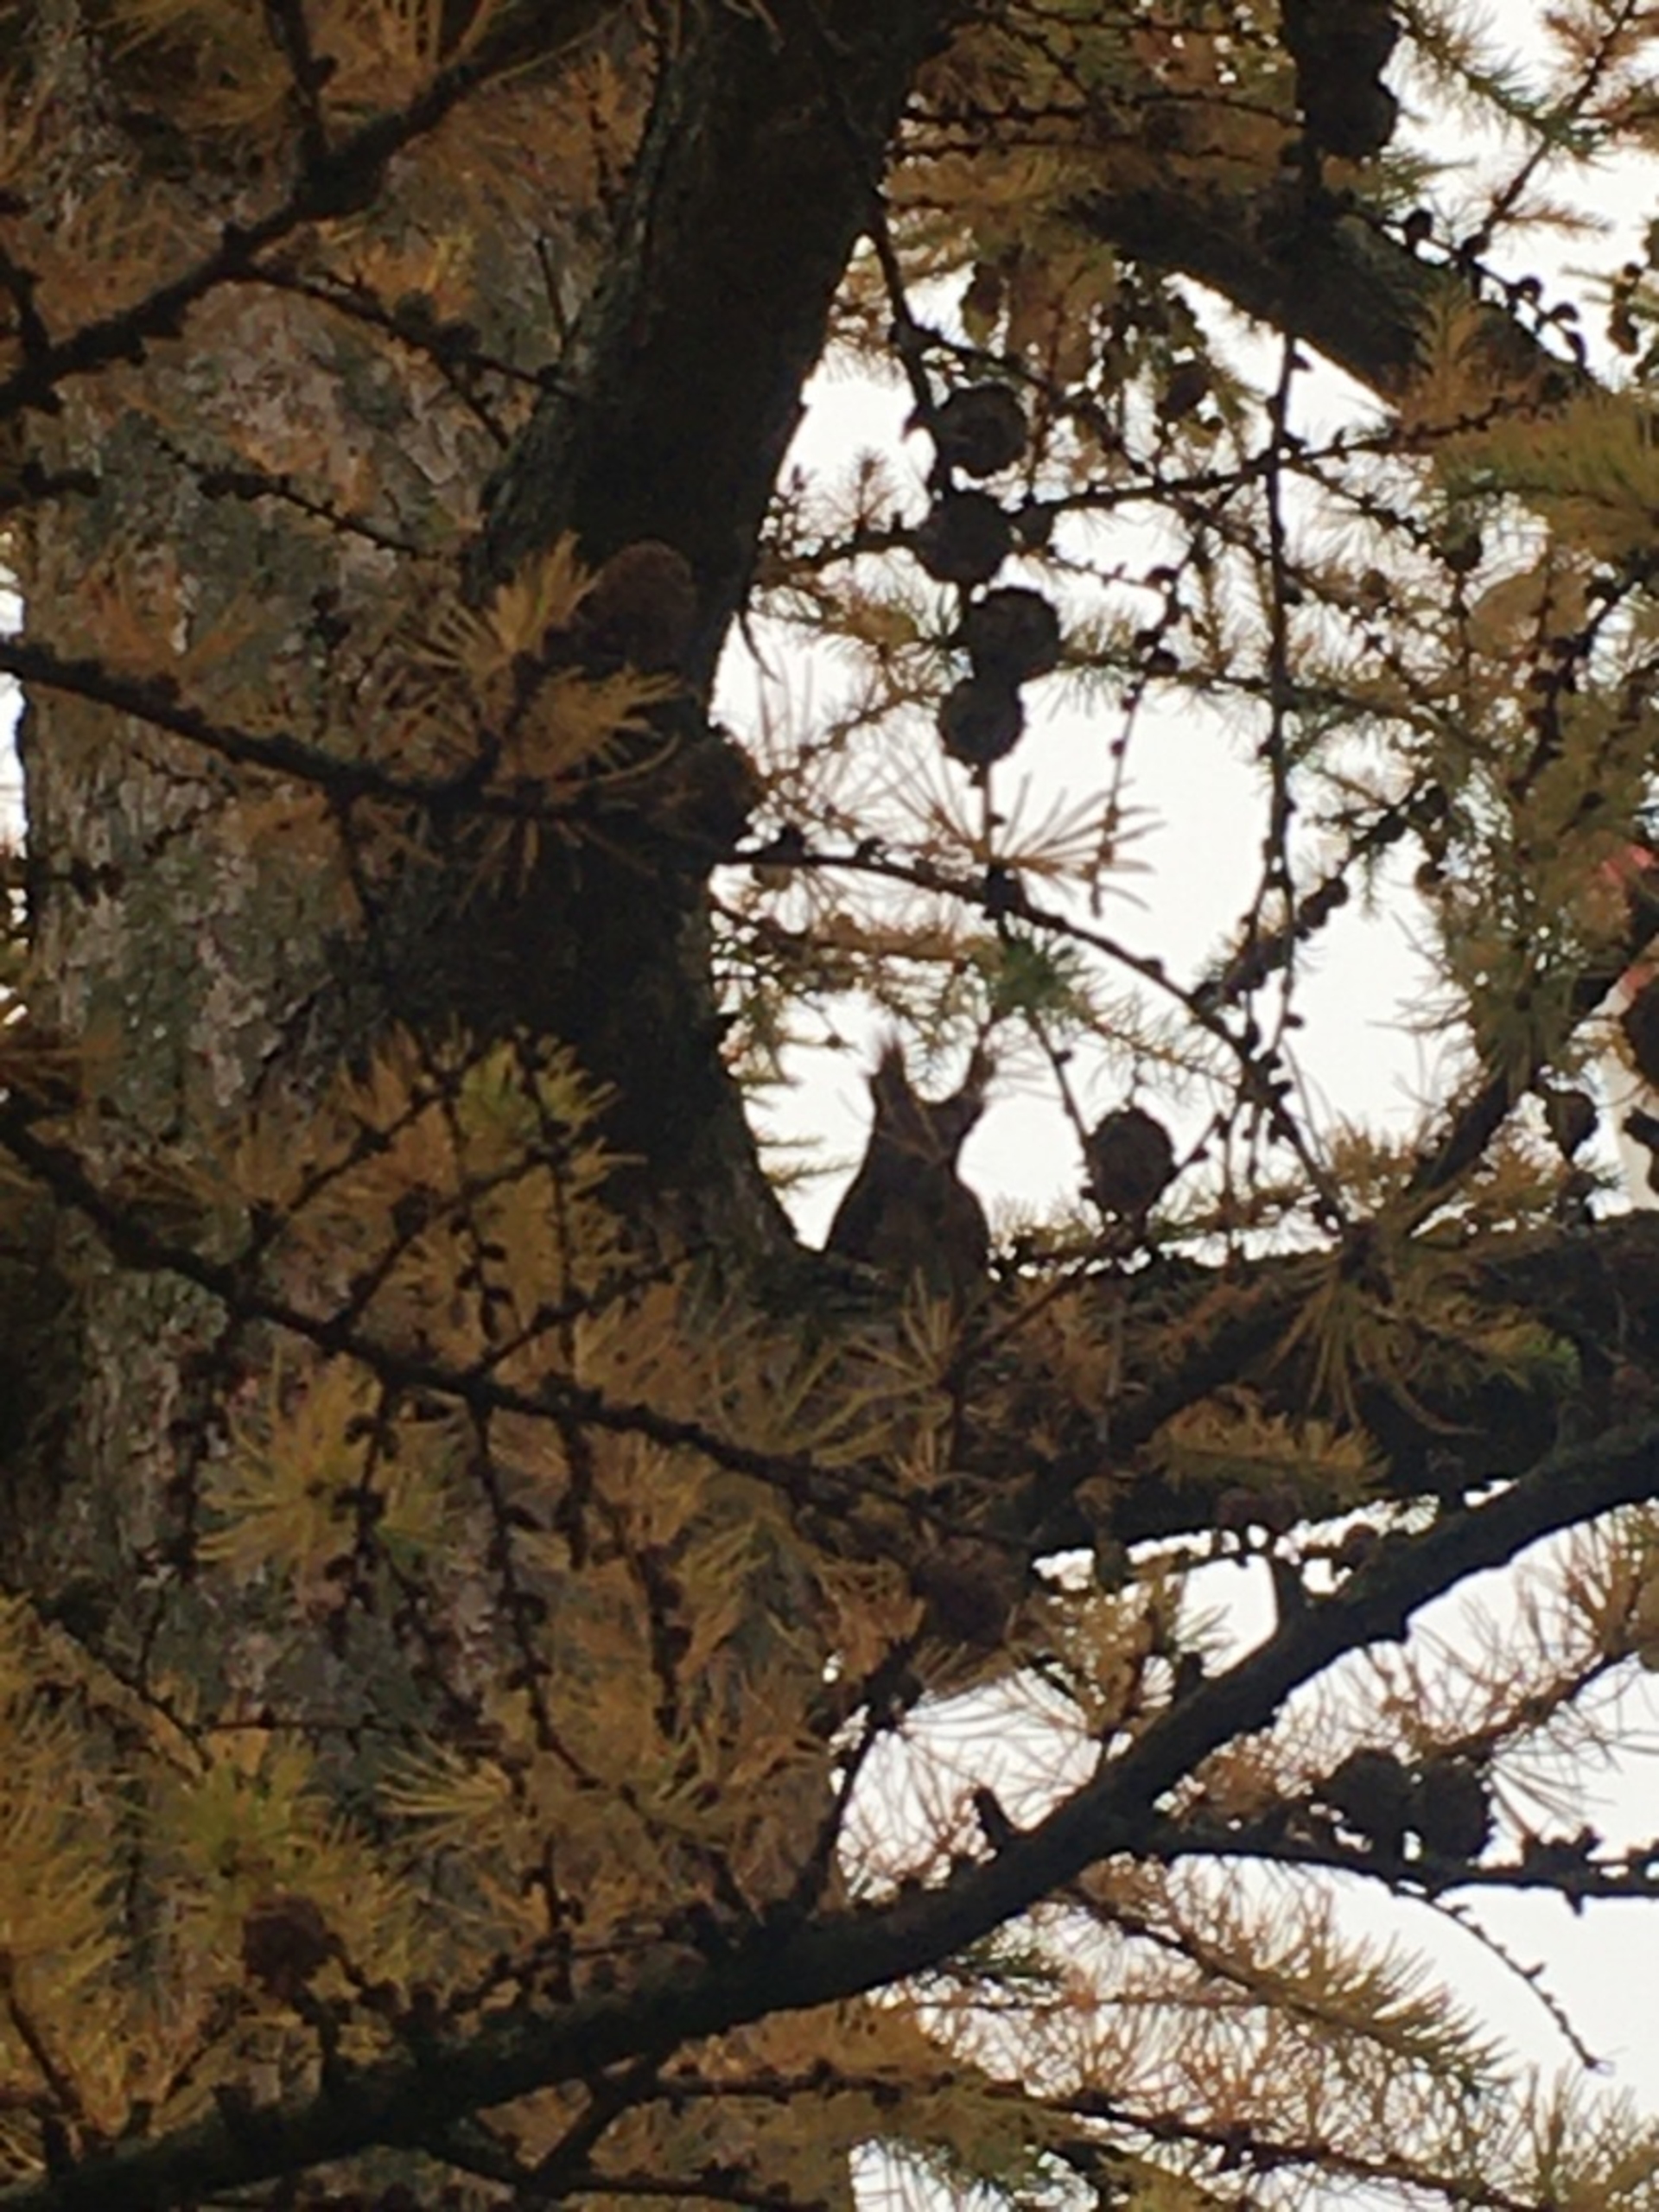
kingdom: Animalia
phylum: Chordata
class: Mammalia
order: Rodentia
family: Sciuridae
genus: Sciurus
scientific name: Sciurus vulgaris
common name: Egern
